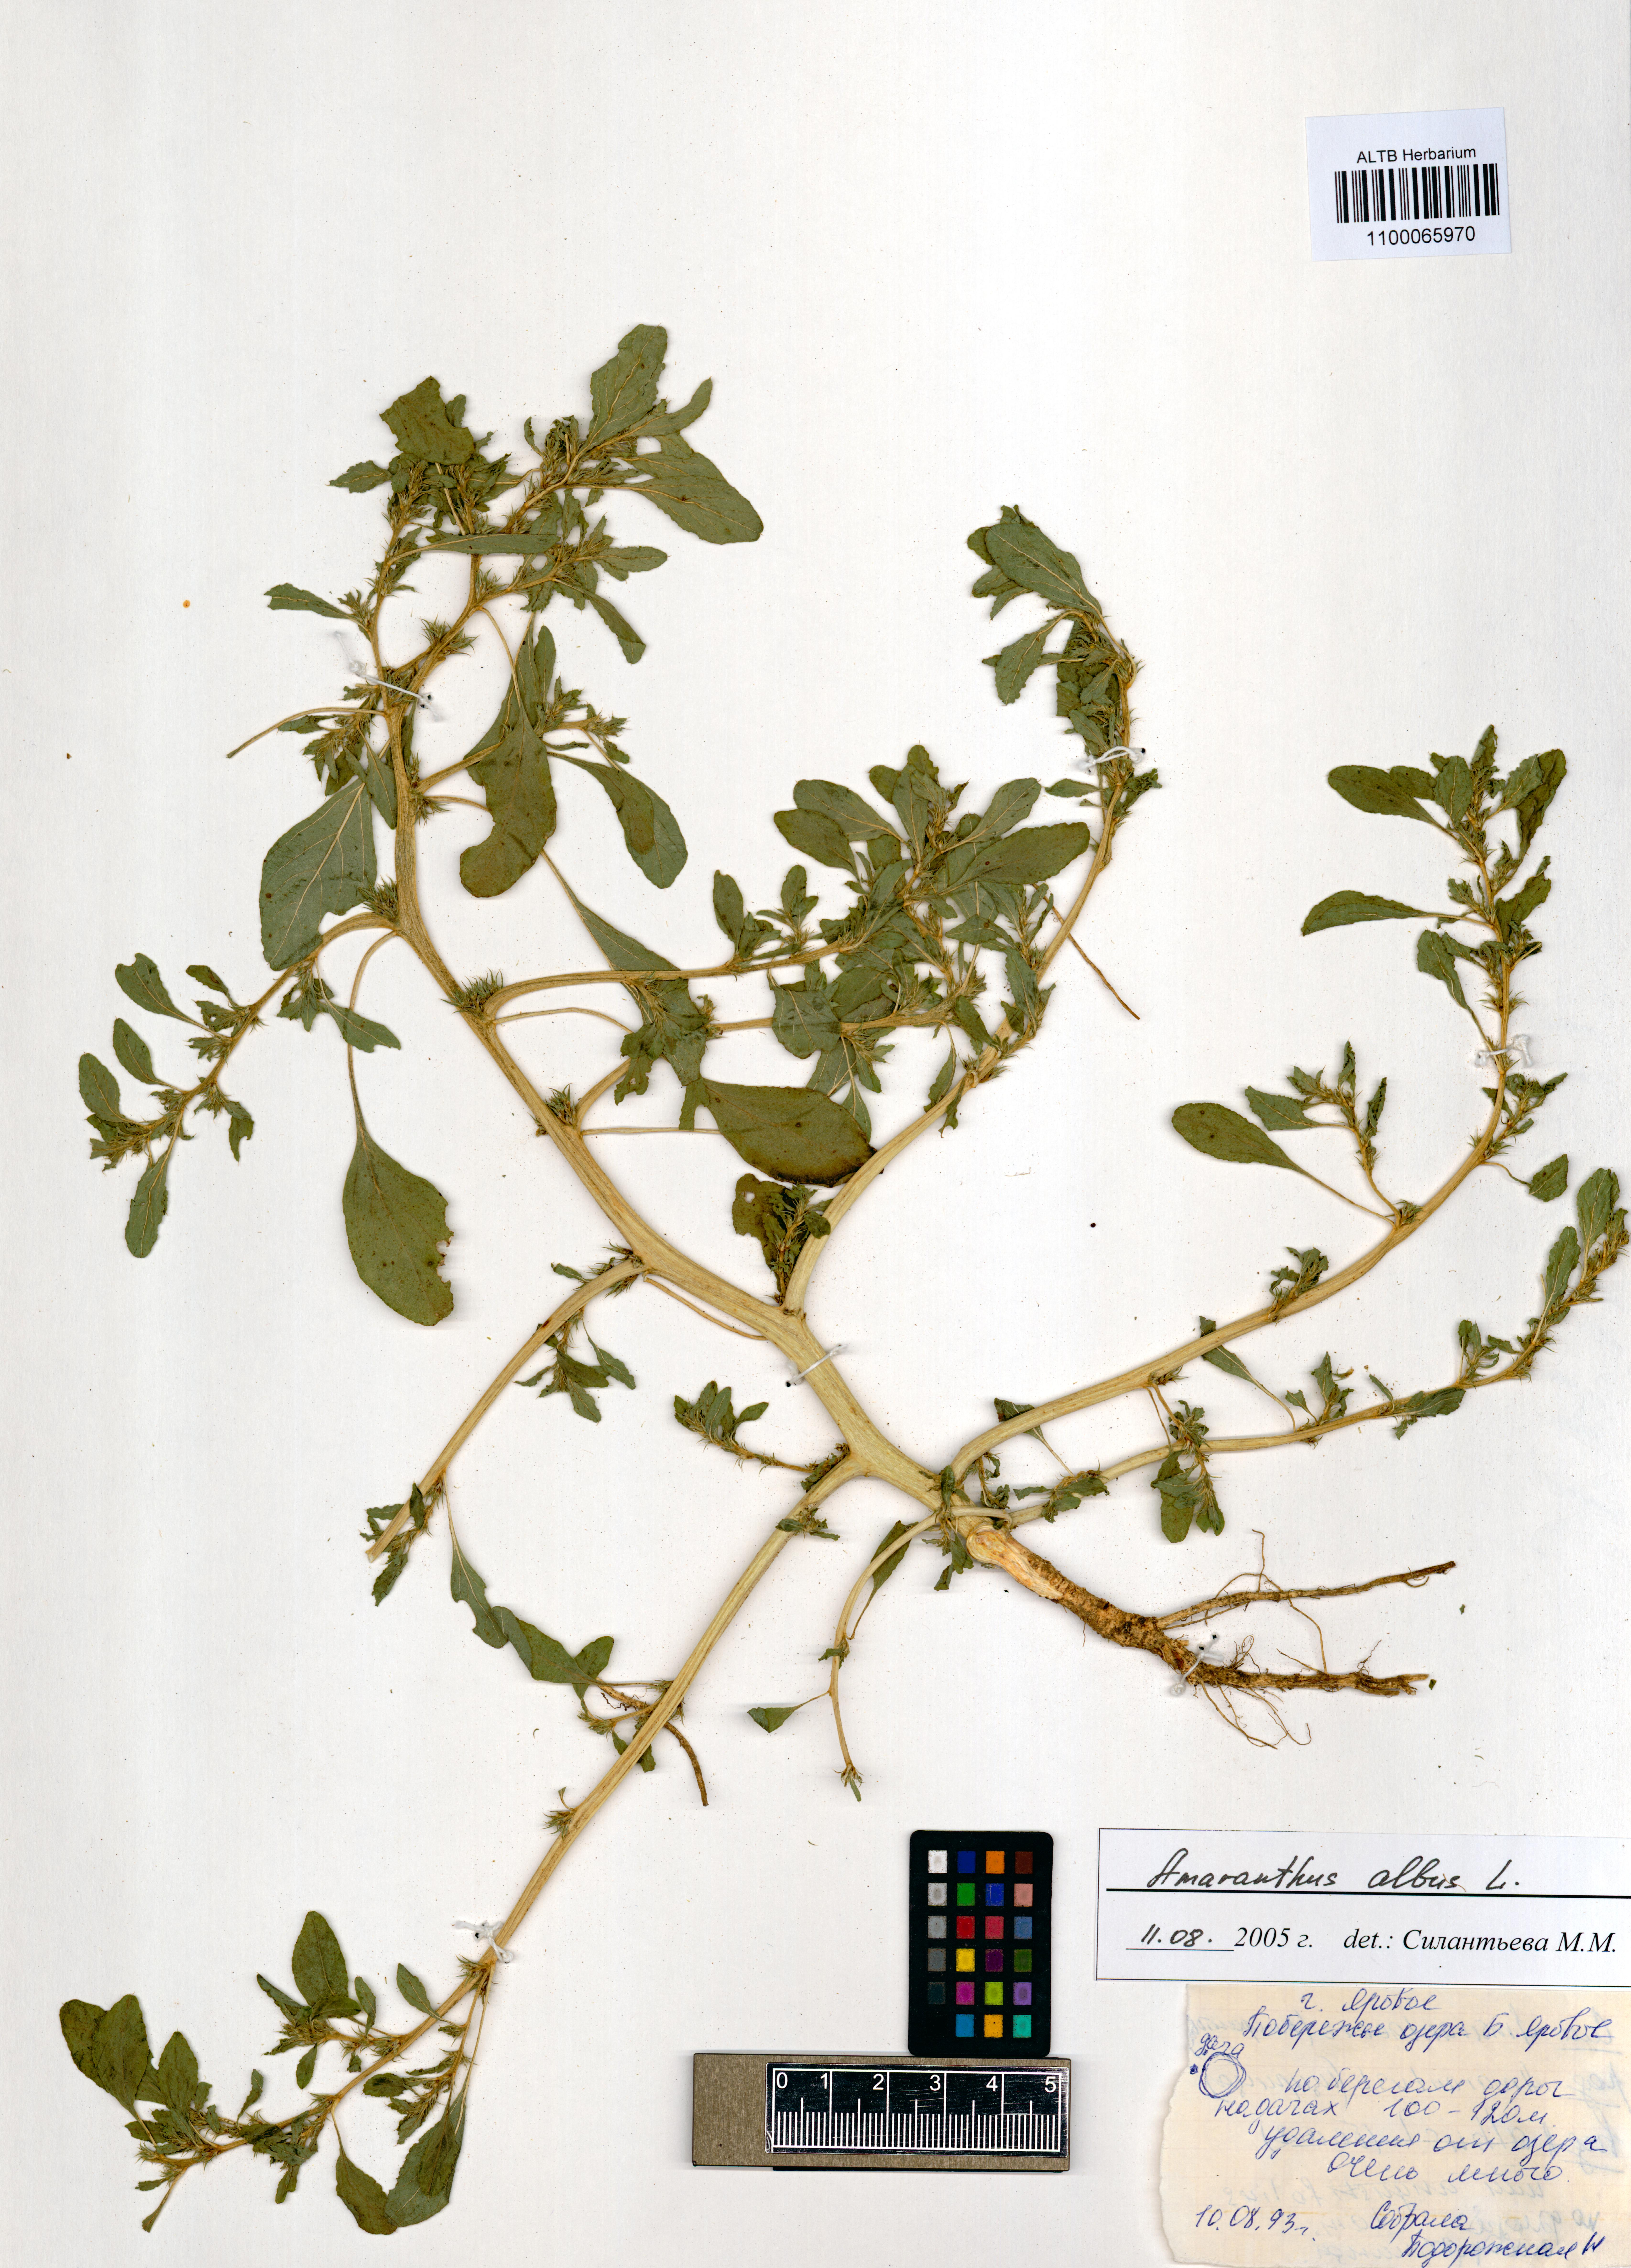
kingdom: Plantae
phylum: Tracheophyta
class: Magnoliopsida
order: Caryophyllales
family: Amaranthaceae
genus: Amaranthus
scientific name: Amaranthus albus
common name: White pigweed
